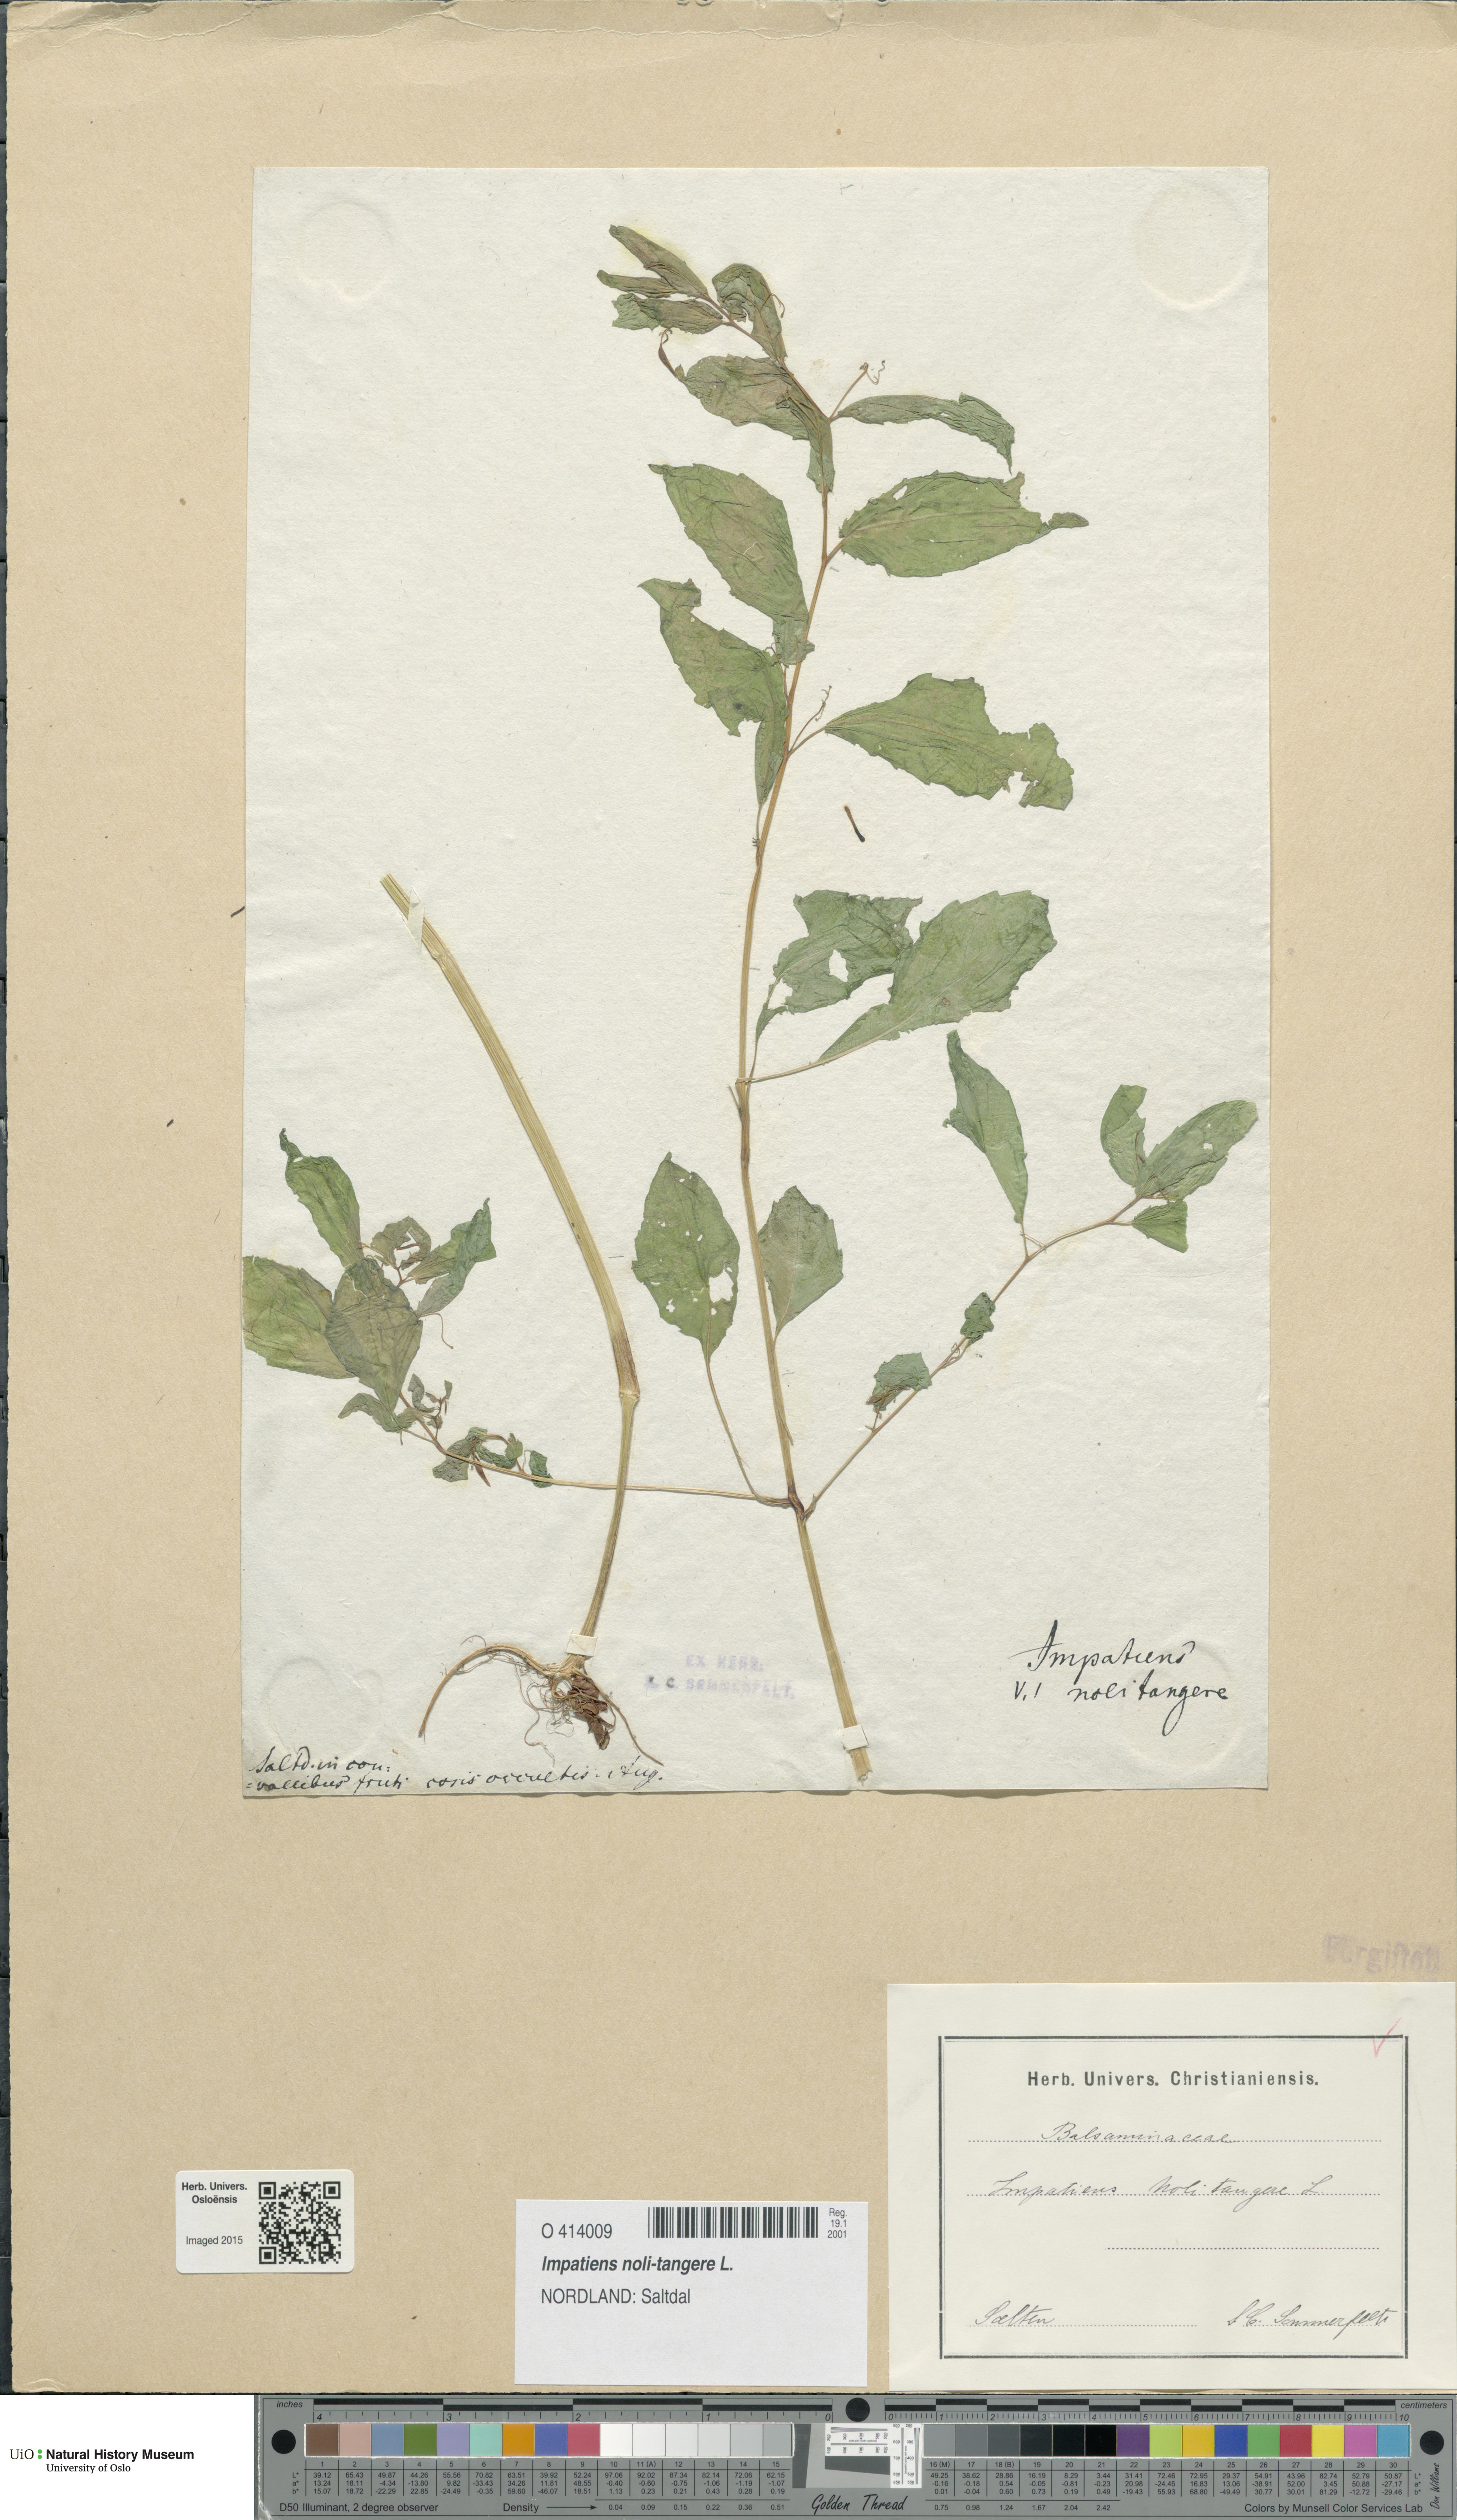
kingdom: Plantae
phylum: Tracheophyta
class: Magnoliopsida
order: Ericales
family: Balsaminaceae
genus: Impatiens
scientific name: Impatiens noli-tangere
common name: Touch-me-not balsam
